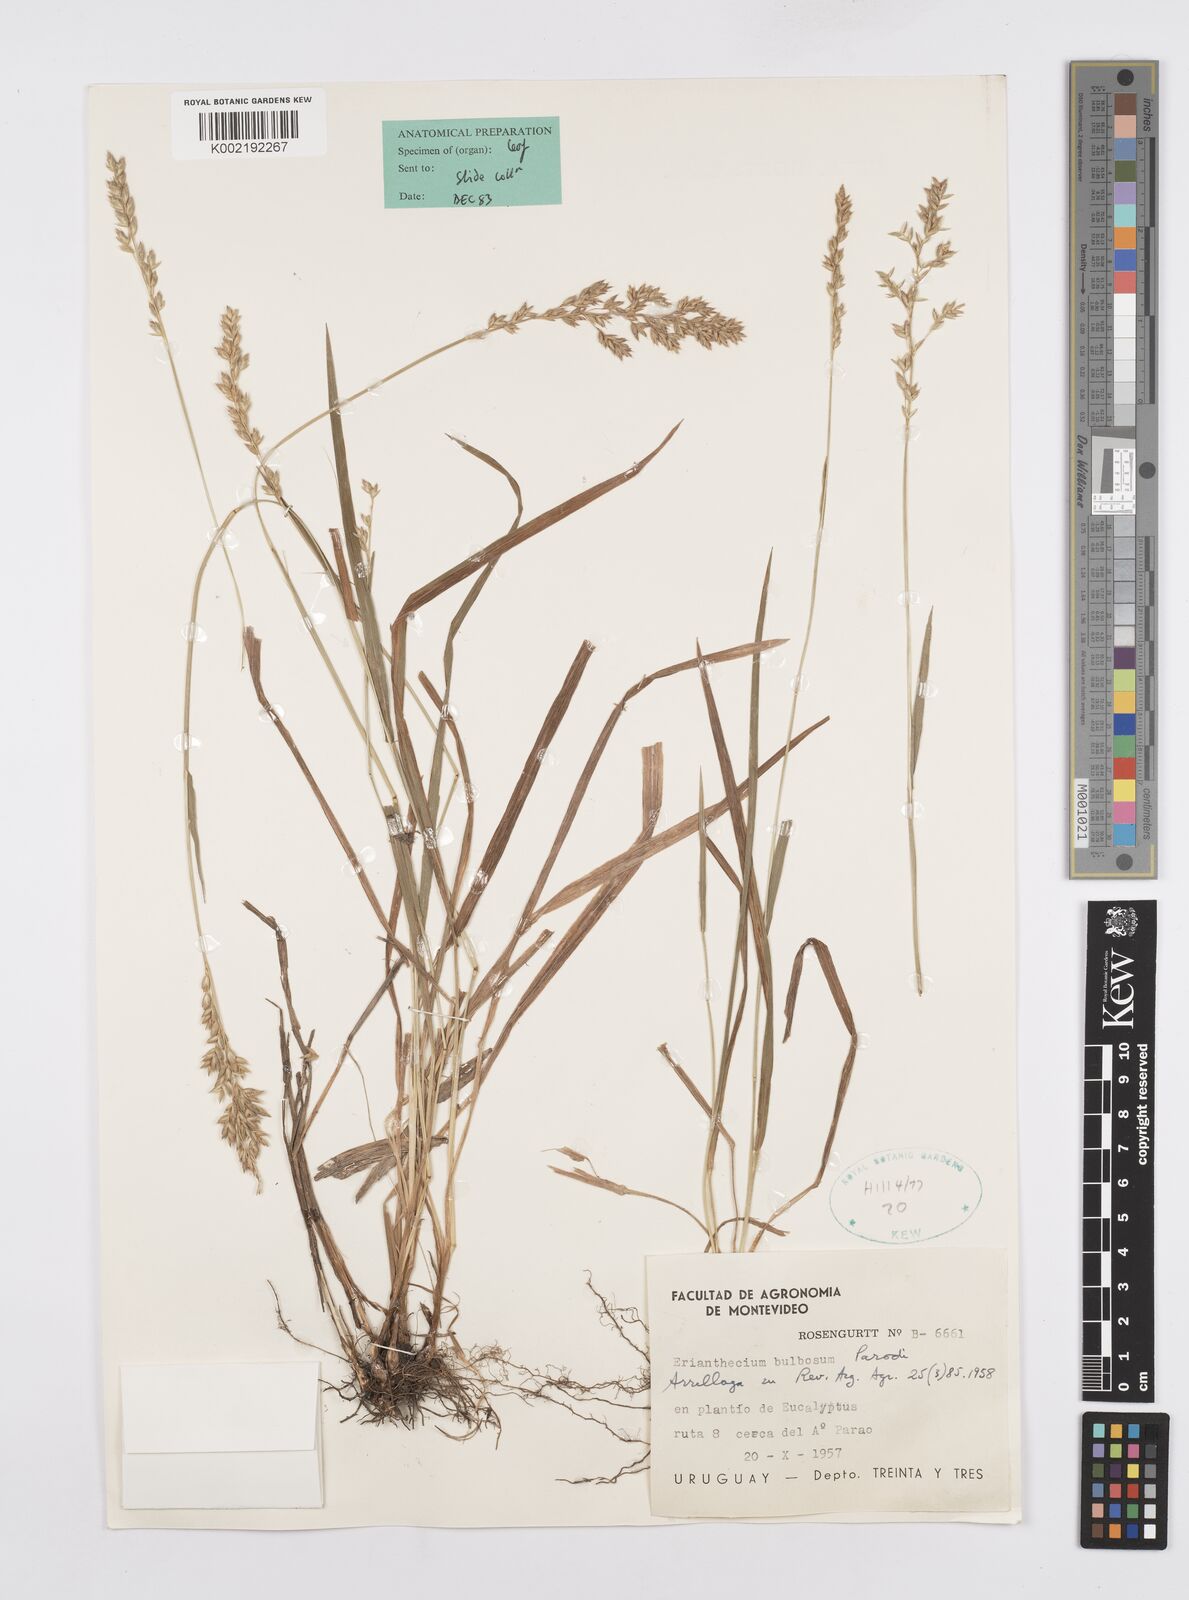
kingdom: Plantae
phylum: Tracheophyta
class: Liliopsida
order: Poales
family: Poaceae
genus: Erianthecium
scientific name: Erianthecium bulbosum
